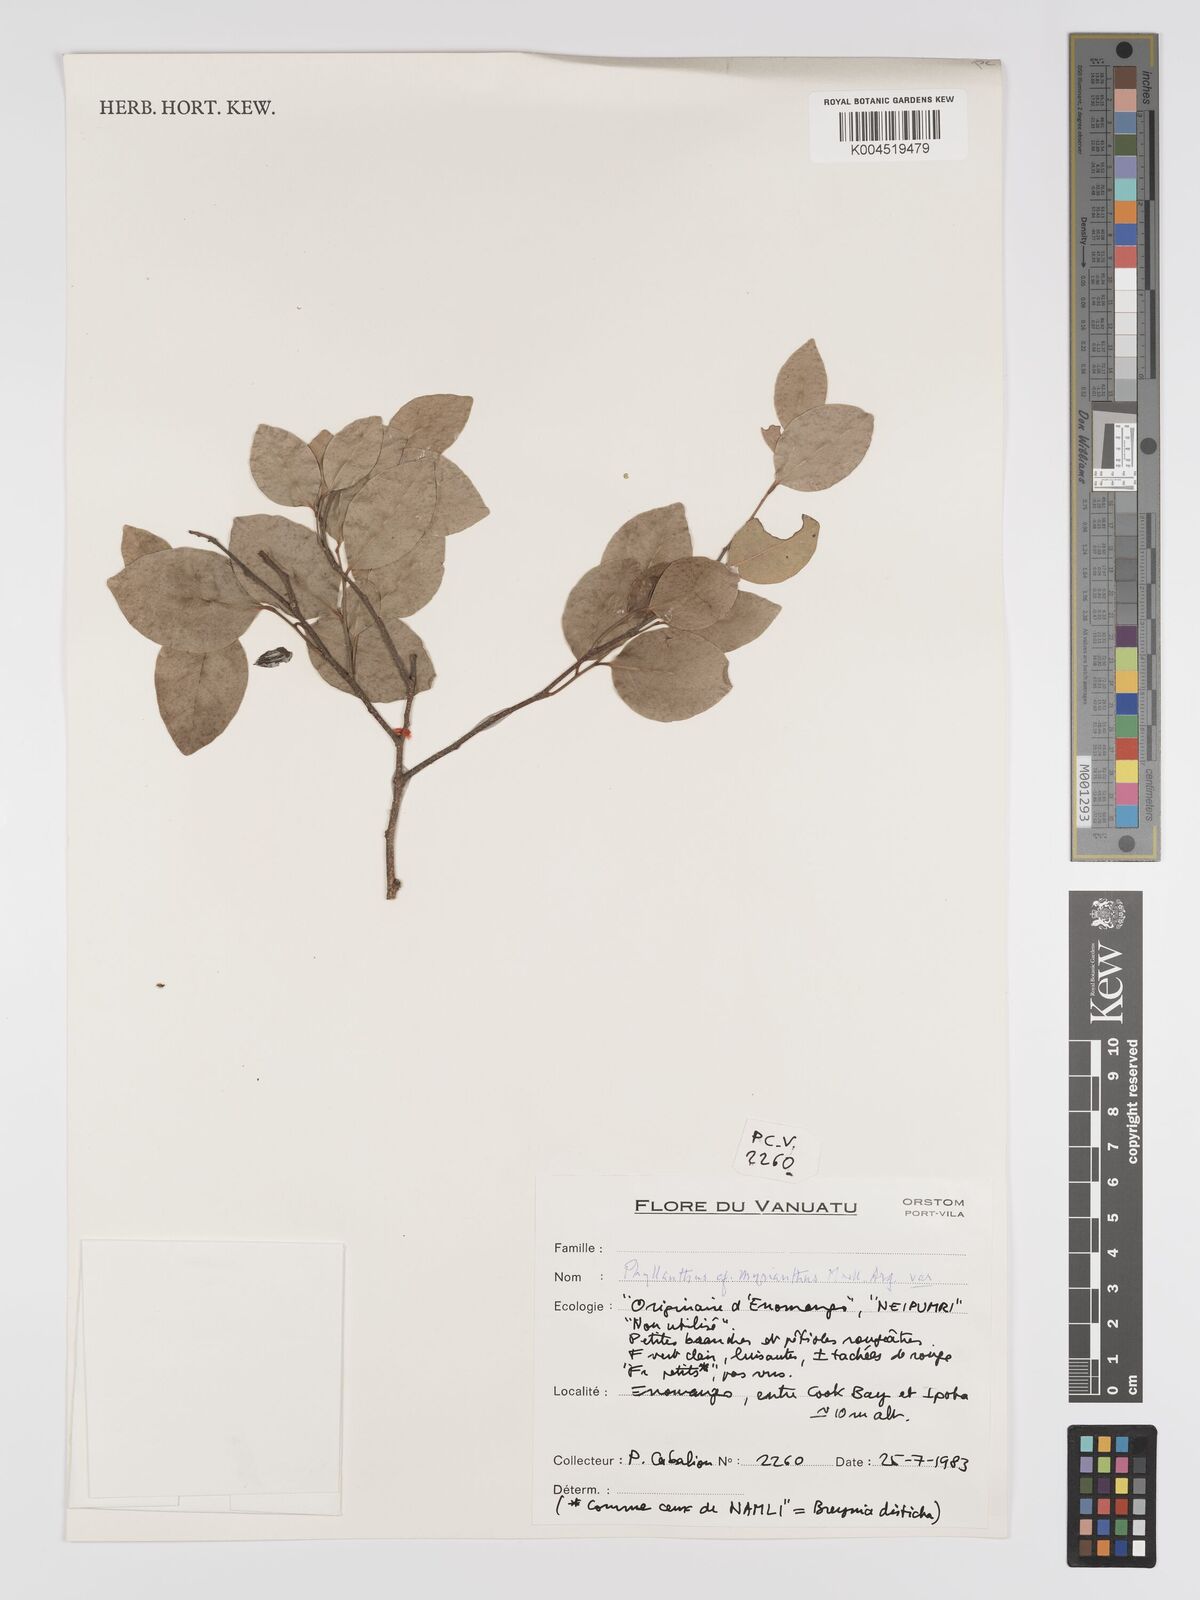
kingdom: Plantae
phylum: Tracheophyta
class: Magnoliopsida
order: Malpighiales
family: Phyllanthaceae
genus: Glochidion
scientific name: Glochidion myrianthum
